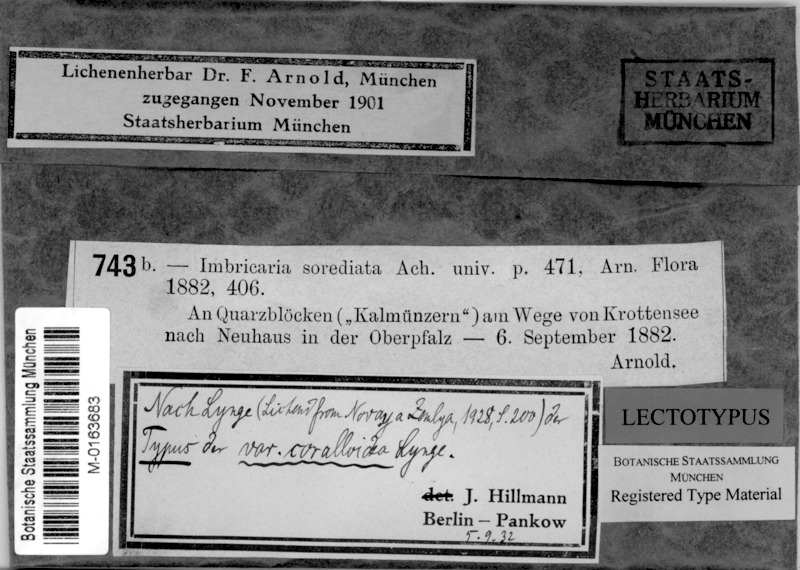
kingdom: Fungi
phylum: Ascomycota
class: Lecanoromycetes
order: Lecanorales
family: Parmeliaceae
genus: Montanelia
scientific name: Montanelia disjuncta
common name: Mealy camouflage lichen
